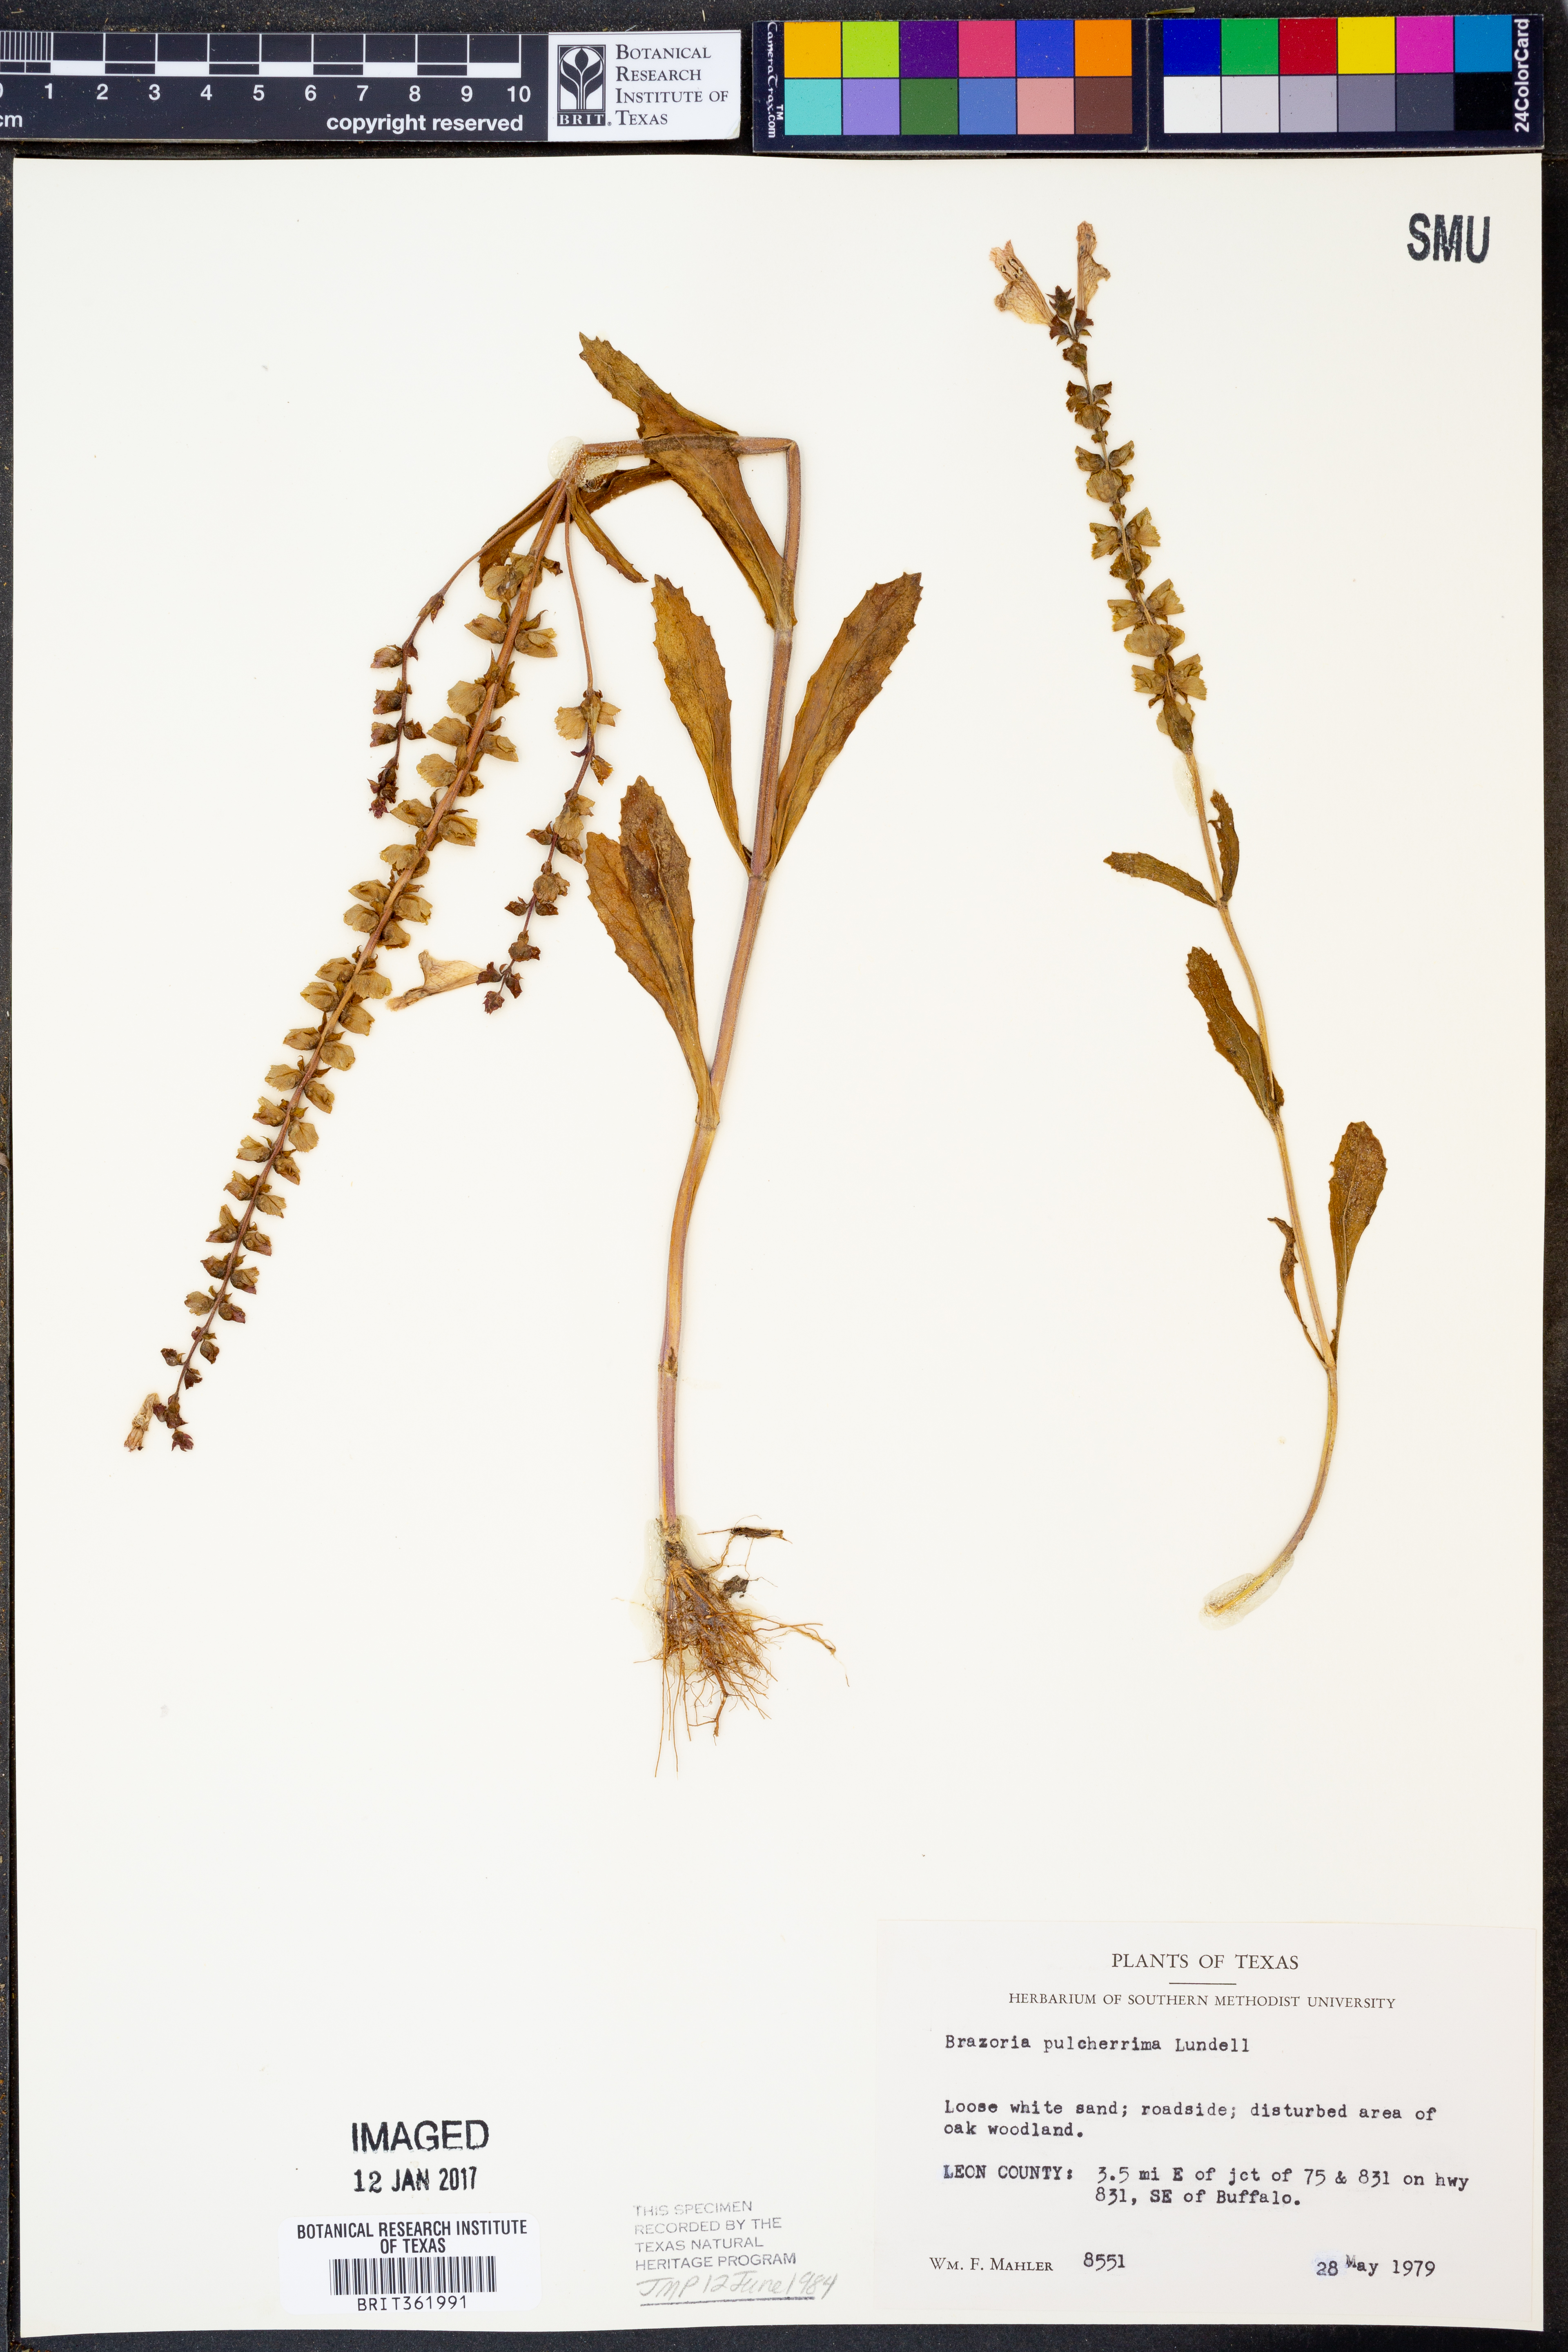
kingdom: Plantae
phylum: Tracheophyta
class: Magnoliopsida
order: Lamiales
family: Lamiaceae
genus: Brazoria
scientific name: Brazoria truncata
